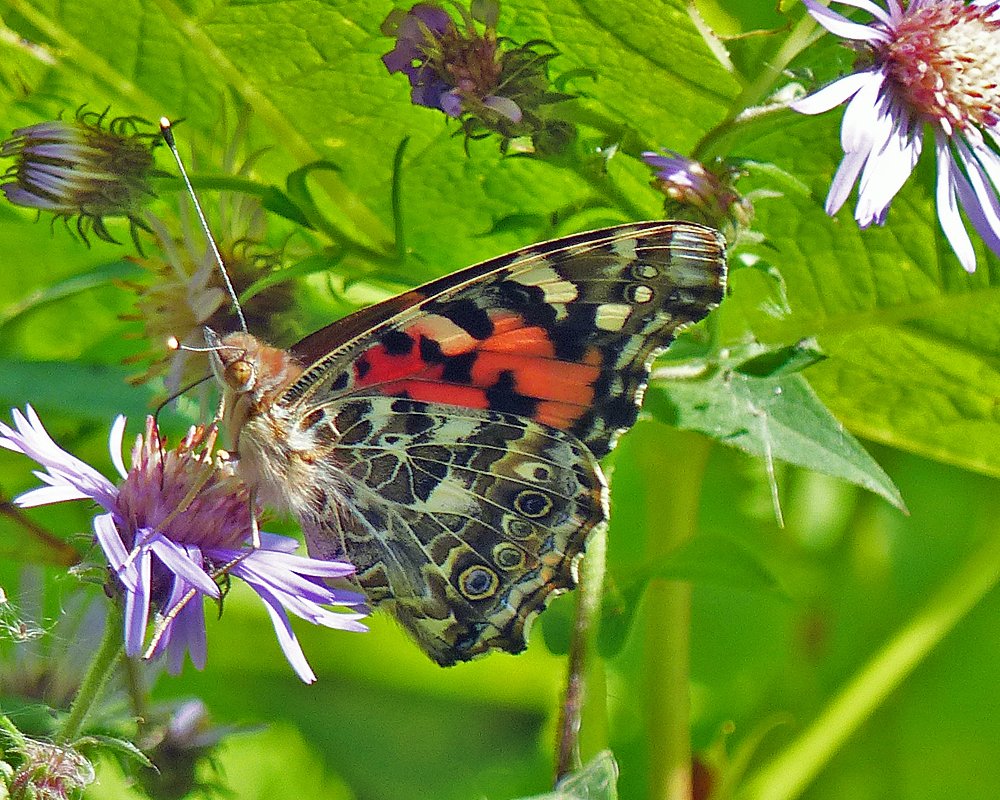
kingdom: Animalia
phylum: Arthropoda
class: Insecta
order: Lepidoptera
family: Nymphalidae
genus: Vanessa
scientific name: Vanessa cardui
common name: Painted Lady
